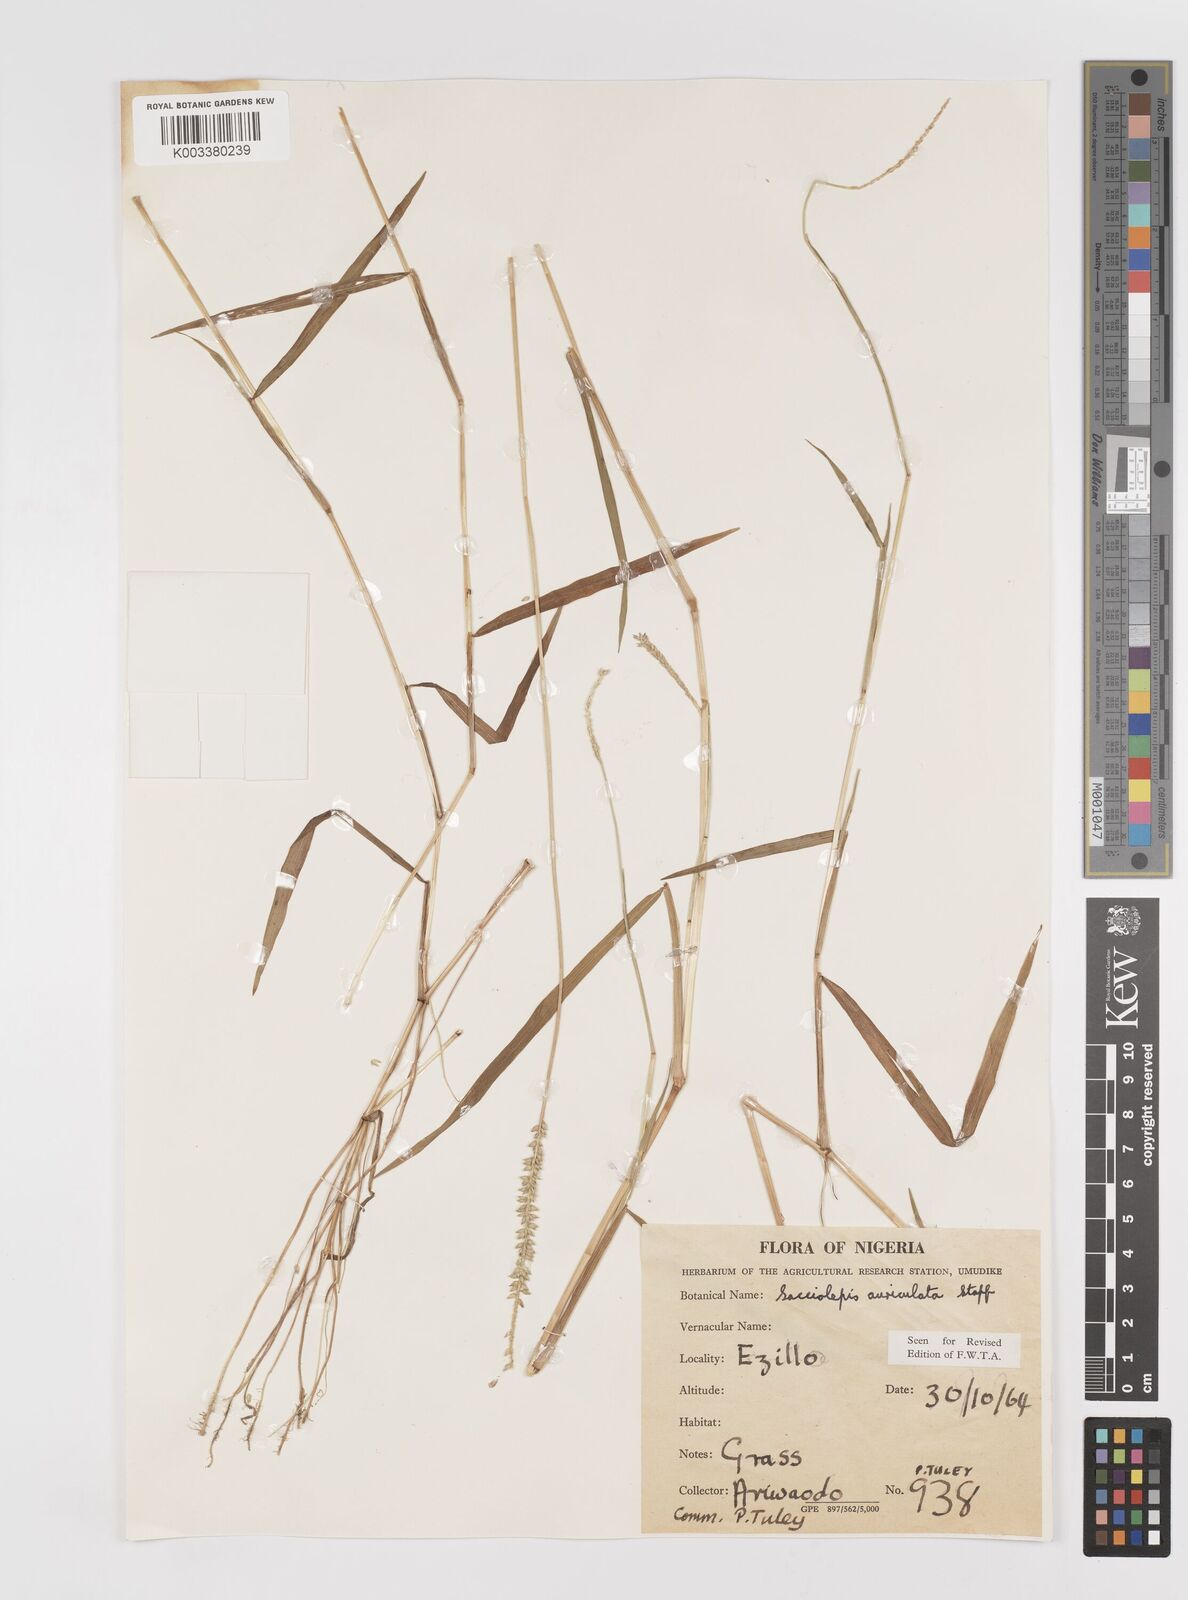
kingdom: Plantae
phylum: Tracheophyta
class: Liliopsida
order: Poales
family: Poaceae
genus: Sacciolepis
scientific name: Sacciolepis indica
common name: Glenwoodgrass
